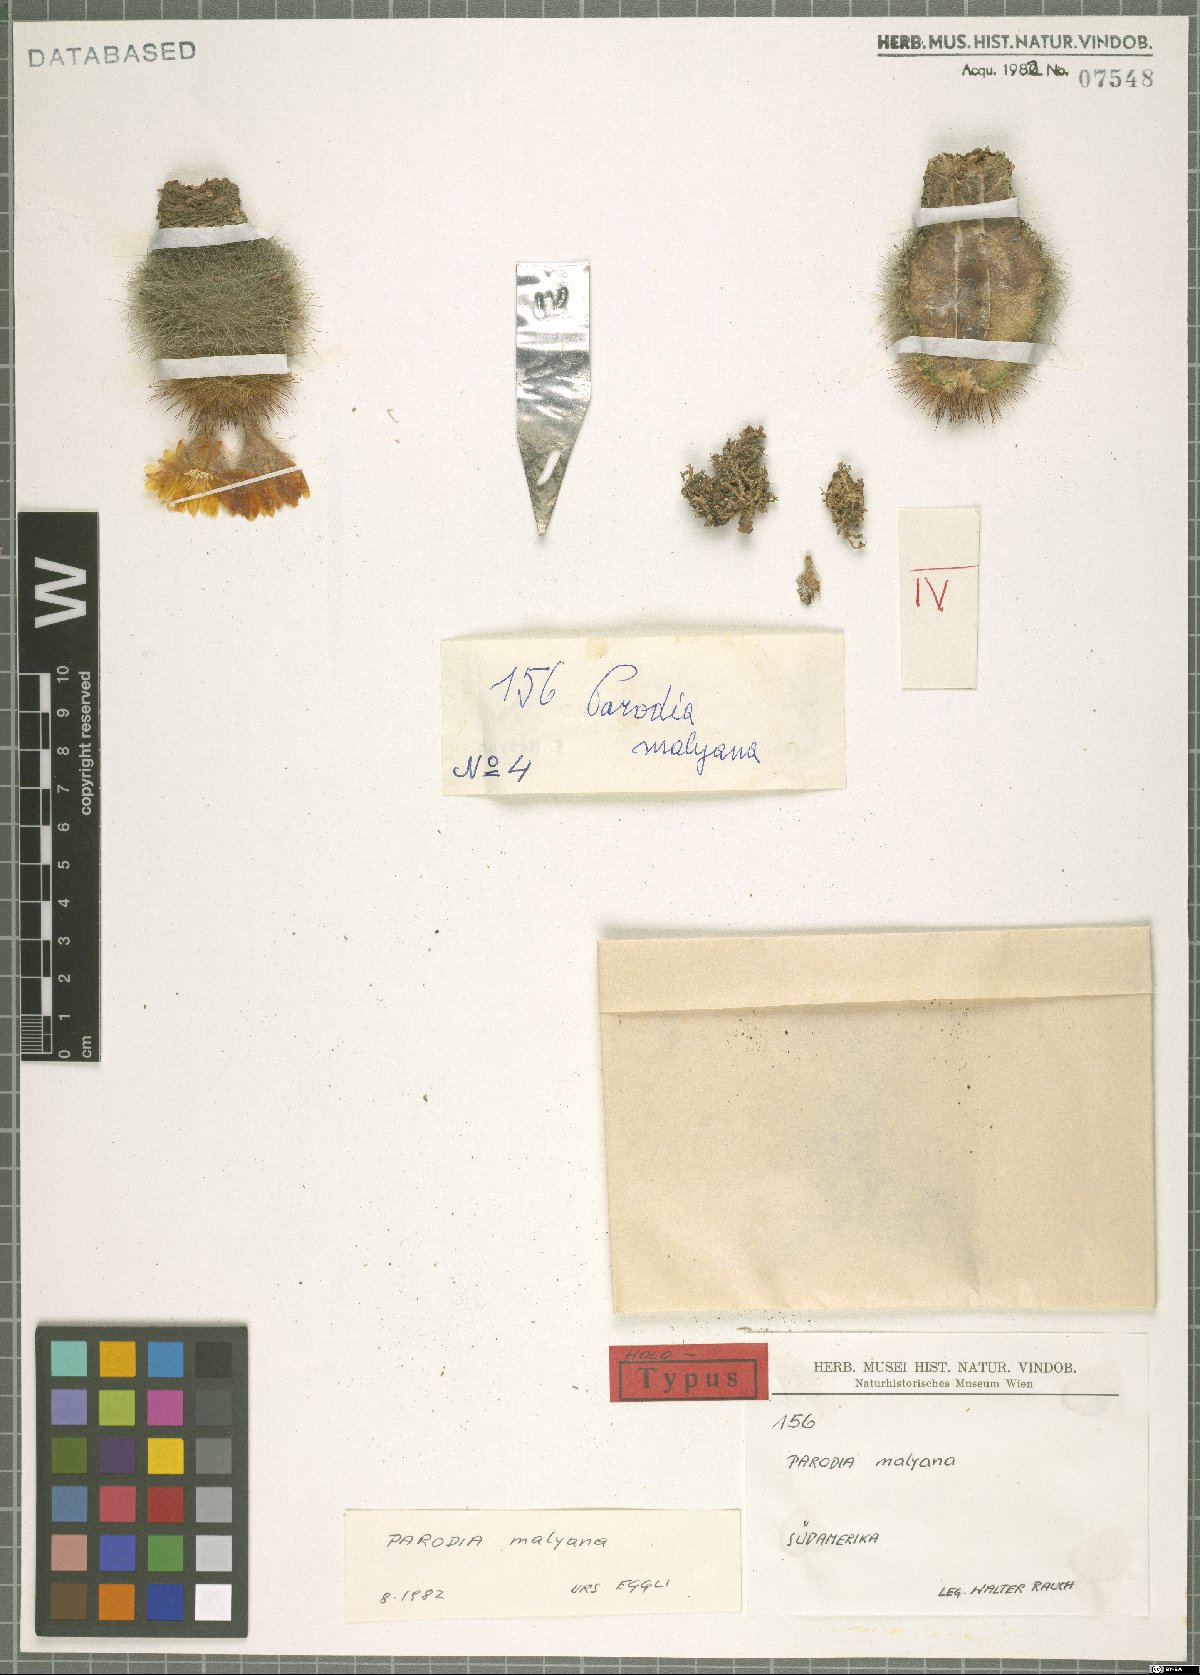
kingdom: Plantae
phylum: Tracheophyta
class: Magnoliopsida
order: Caryophyllales
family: Cactaceae
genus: Parodia
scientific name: Parodia microsperma
